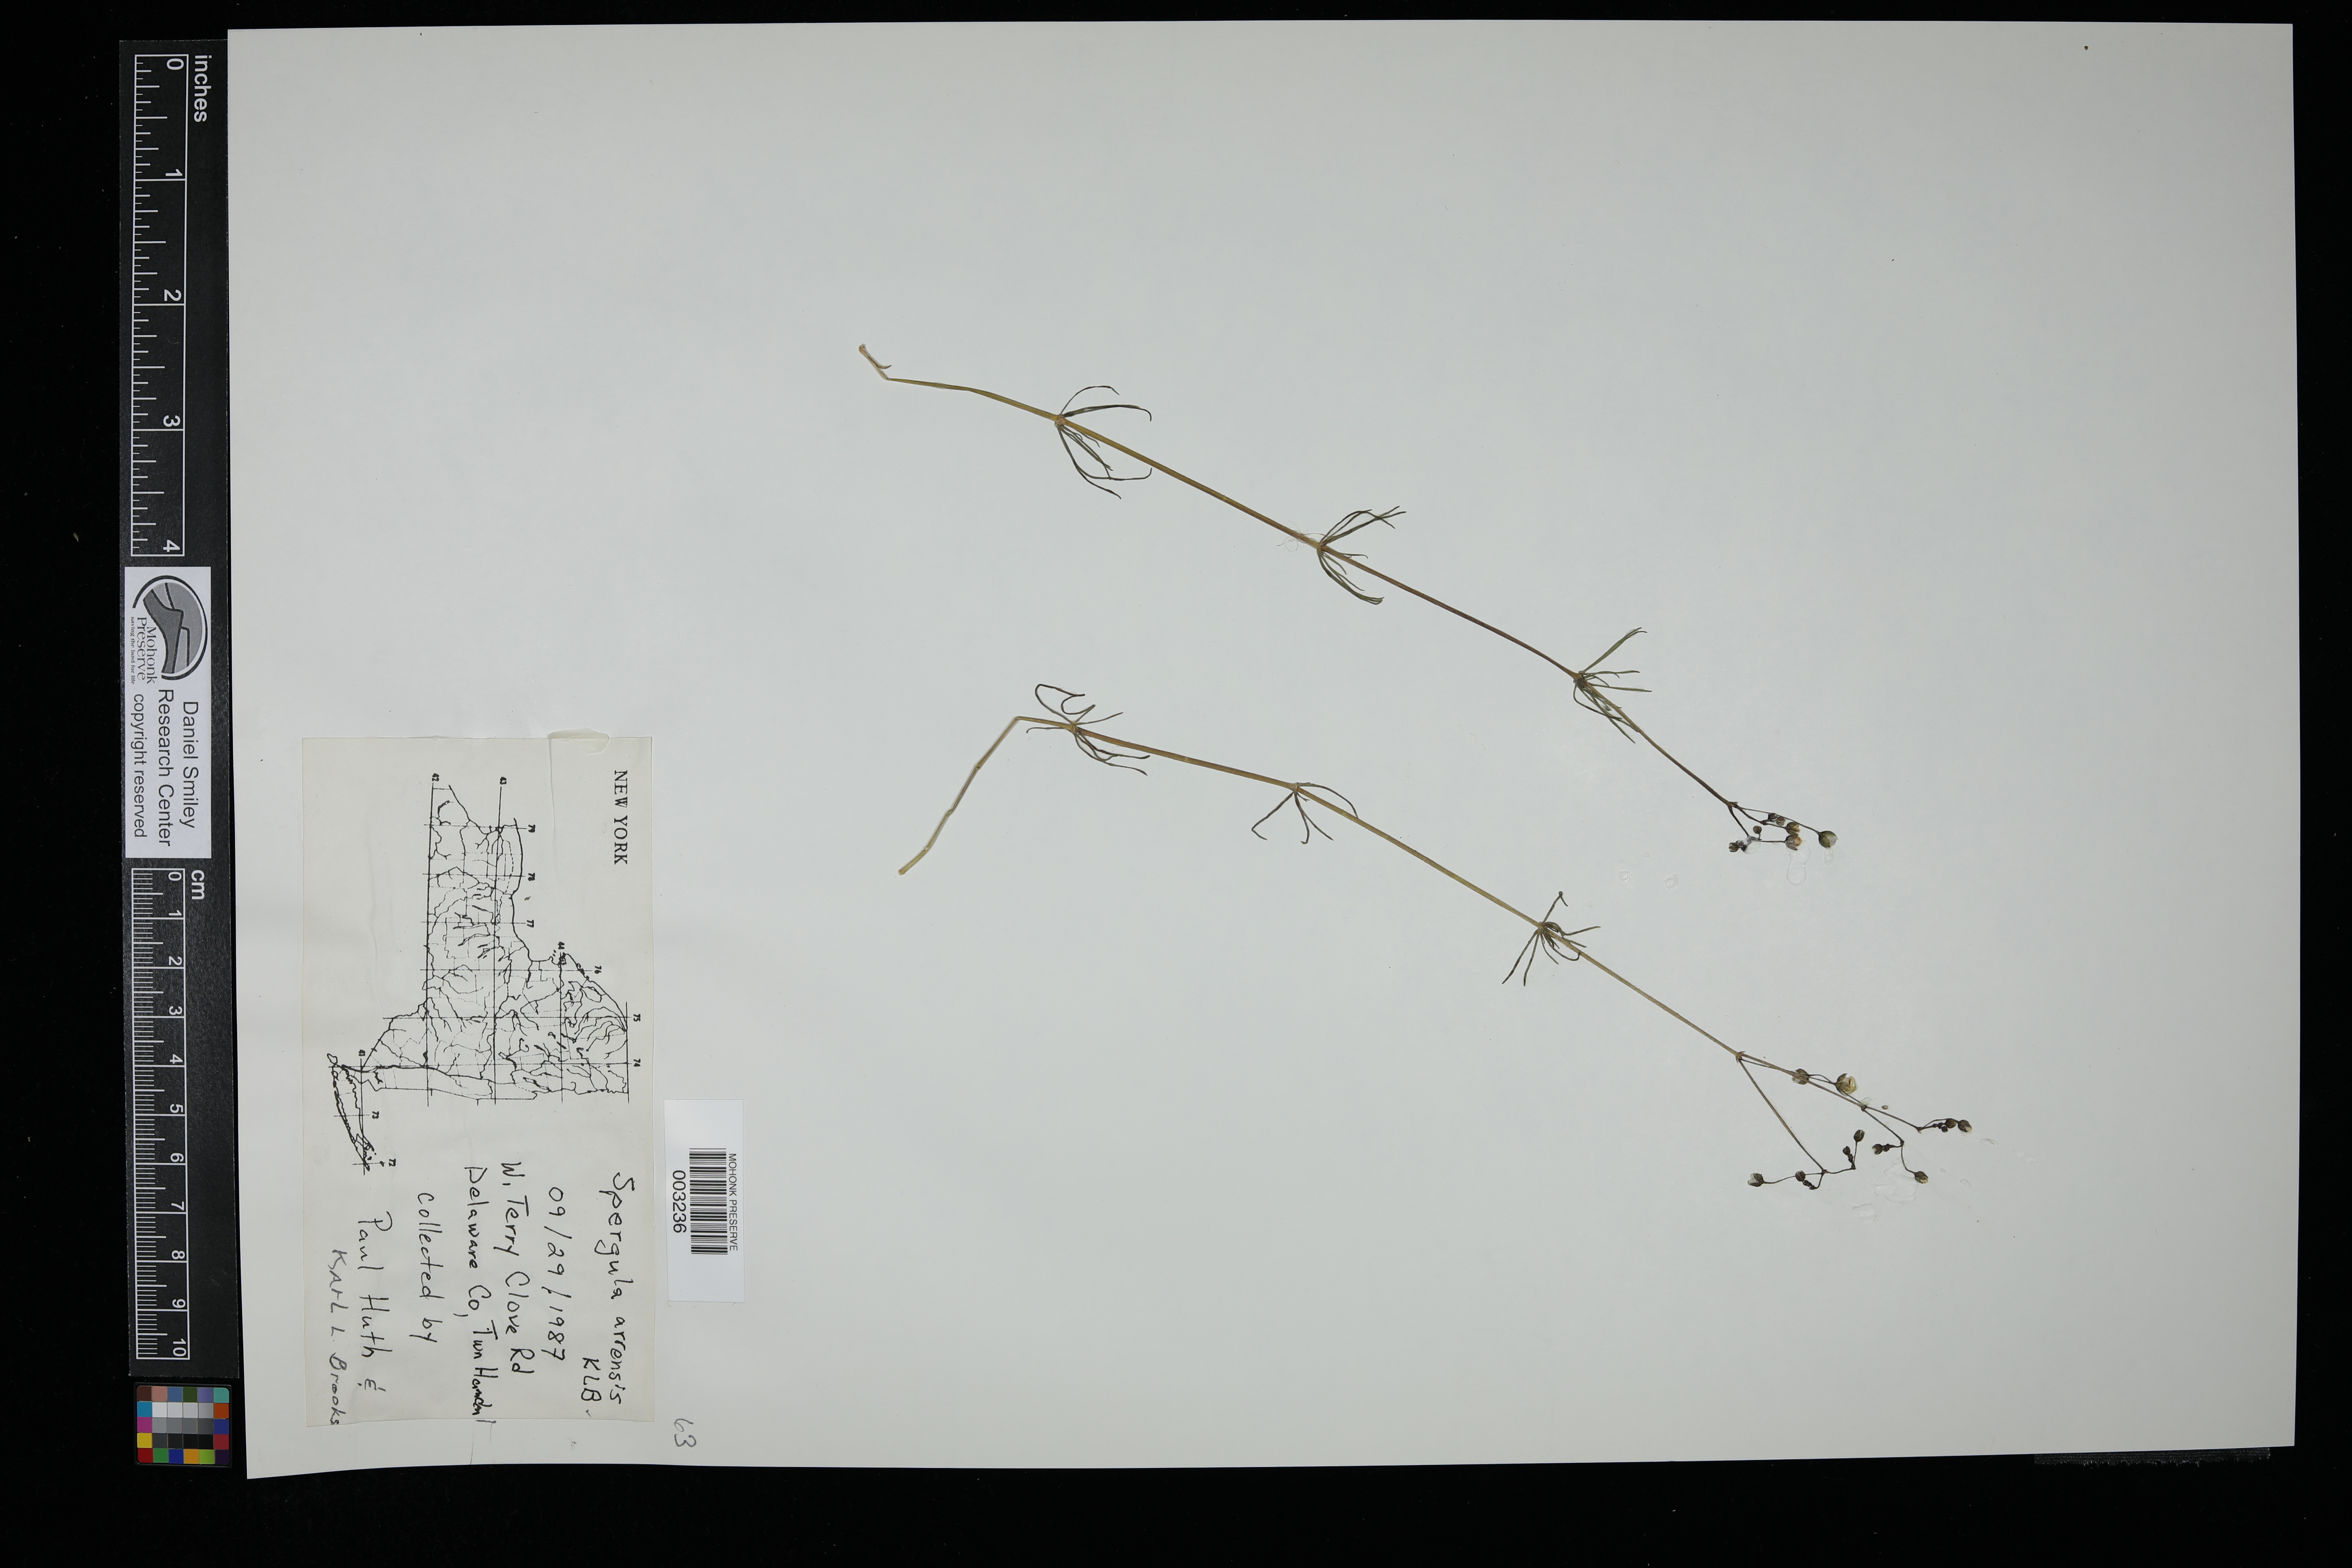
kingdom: Plantae
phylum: Tracheophyta
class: Magnoliopsida
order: Caryophyllales
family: Caryophyllaceae
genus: Spergula
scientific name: Spergula arvensis
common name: Corn spurrey
